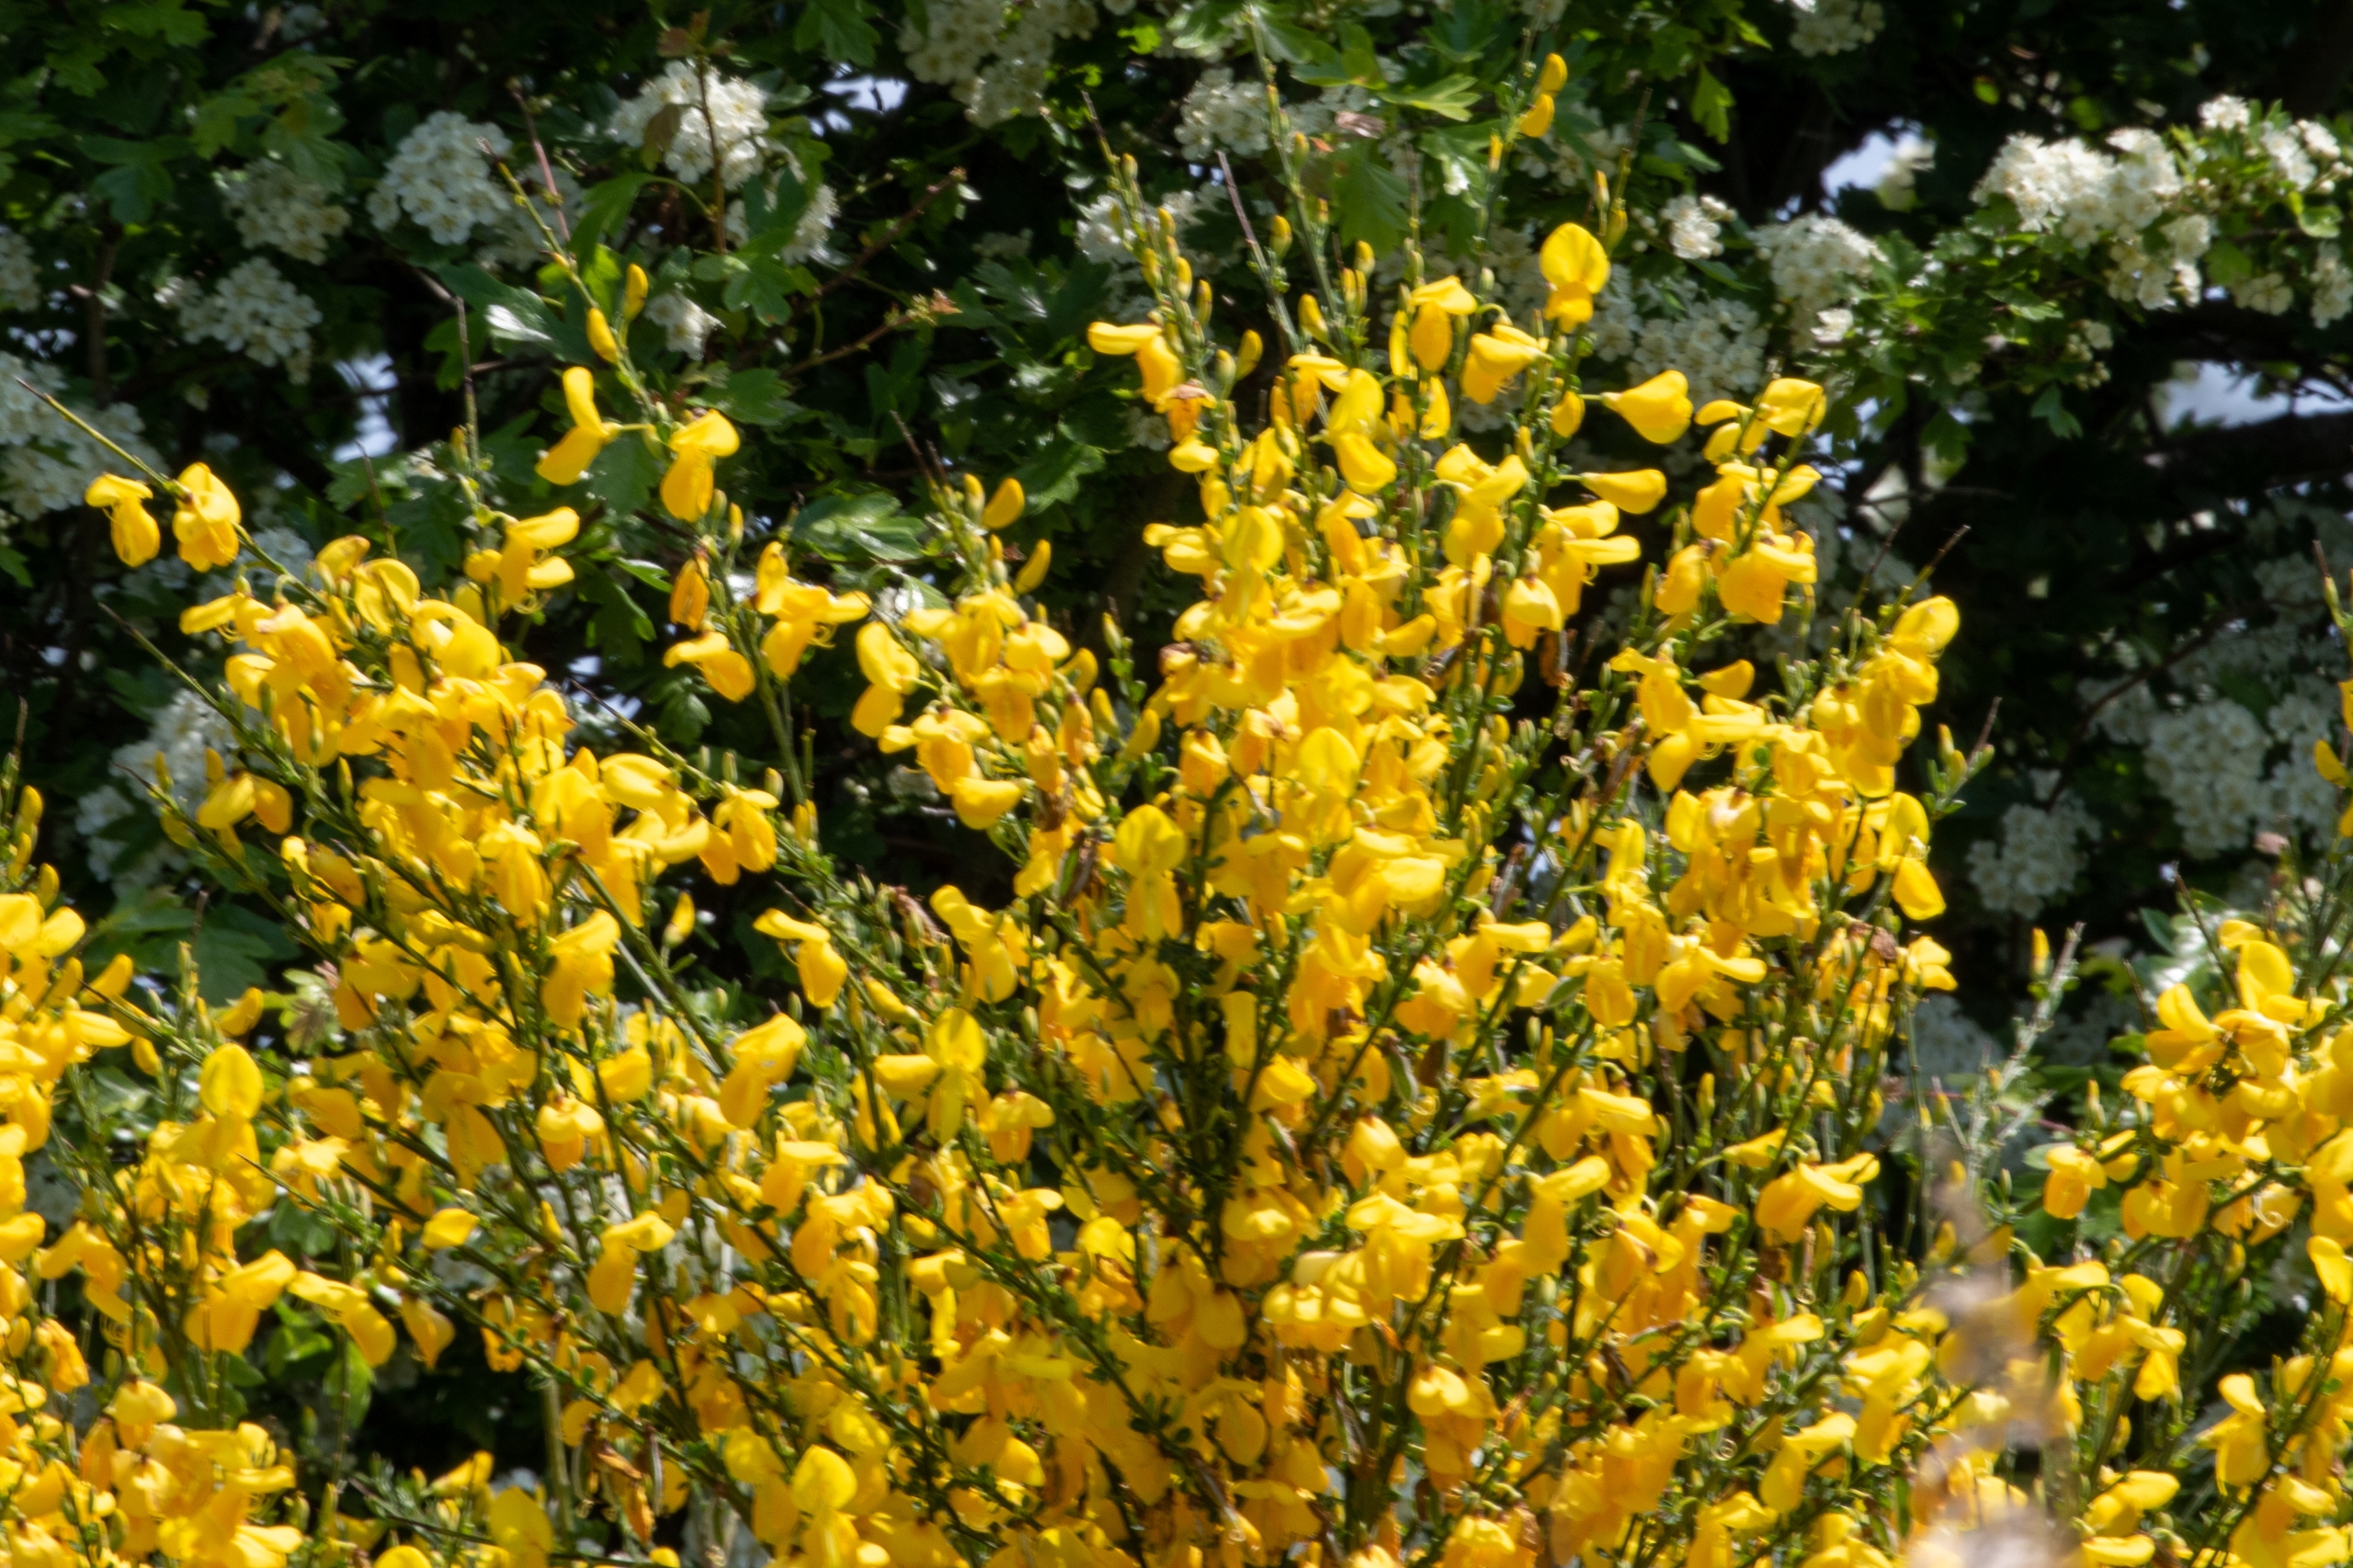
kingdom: Plantae
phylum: Tracheophyta
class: Magnoliopsida
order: Fabales
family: Fabaceae
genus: Cytisus
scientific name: Cytisus scoparius
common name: Almindelig gyvel
